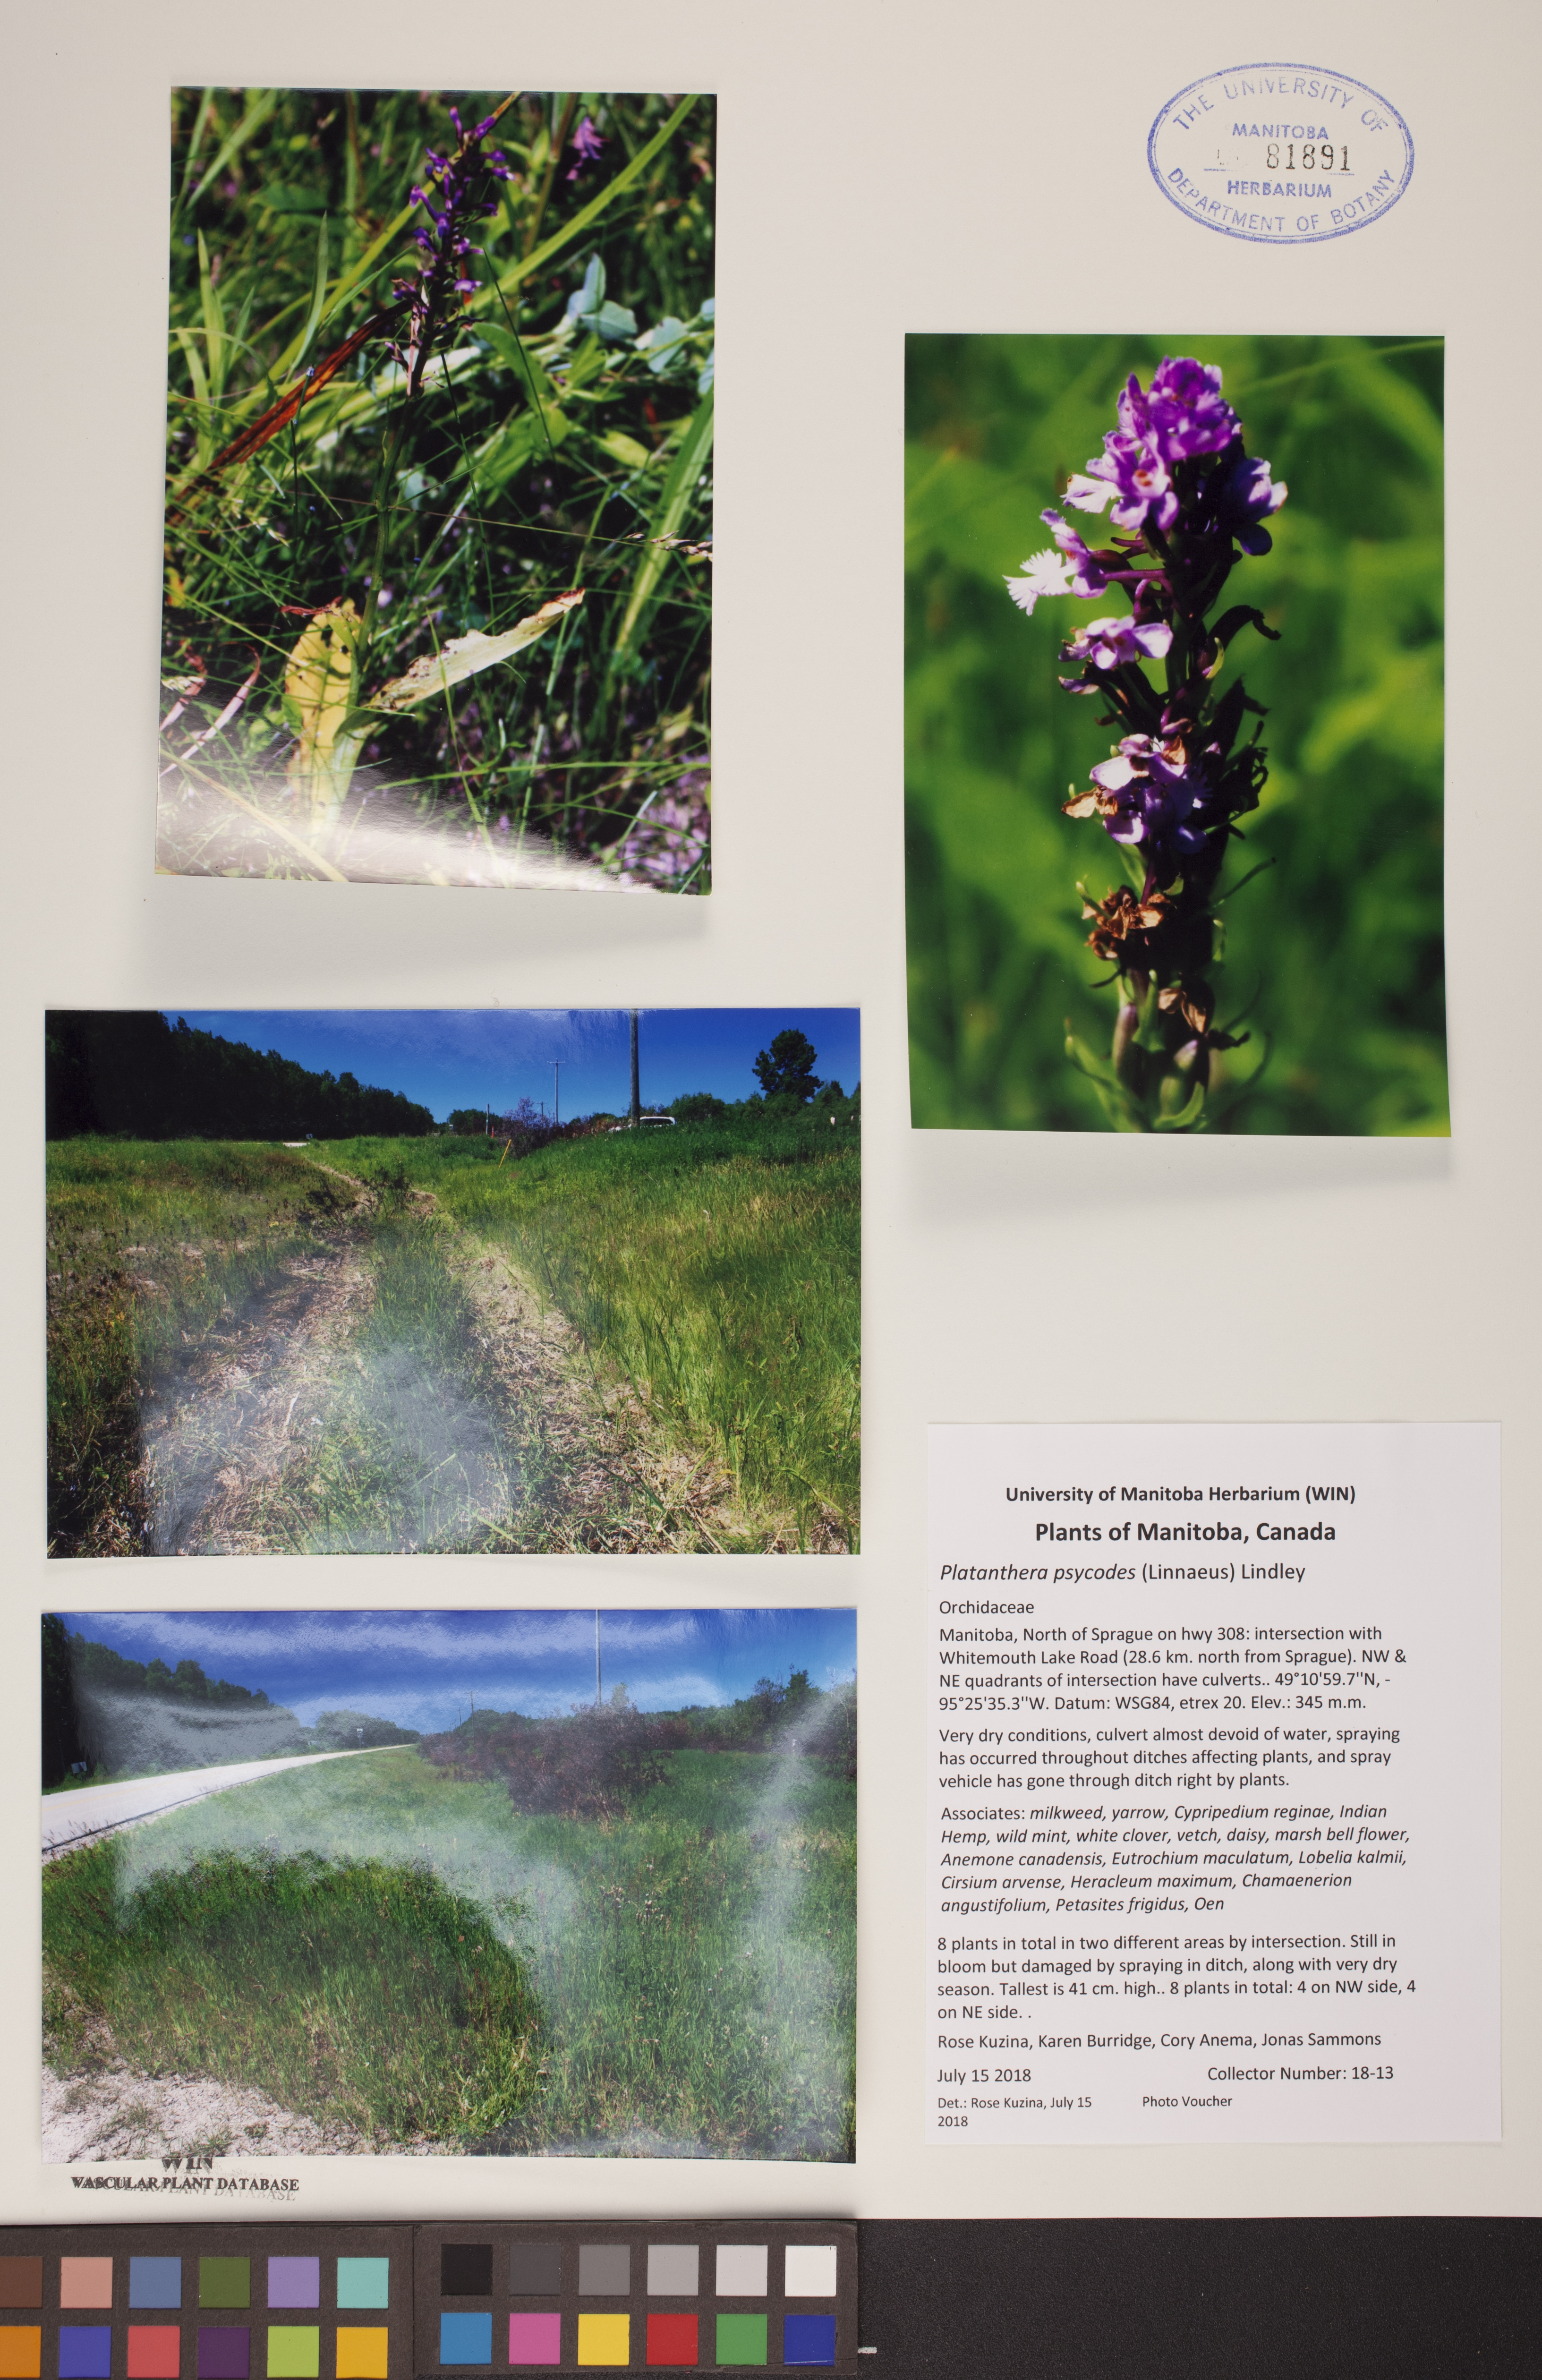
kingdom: Plantae
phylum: Tracheophyta
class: Liliopsida
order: Asparagales
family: Orchidaceae
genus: Platanthera
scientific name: Platanthera psycodes
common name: Lesser purple fringed orchid
